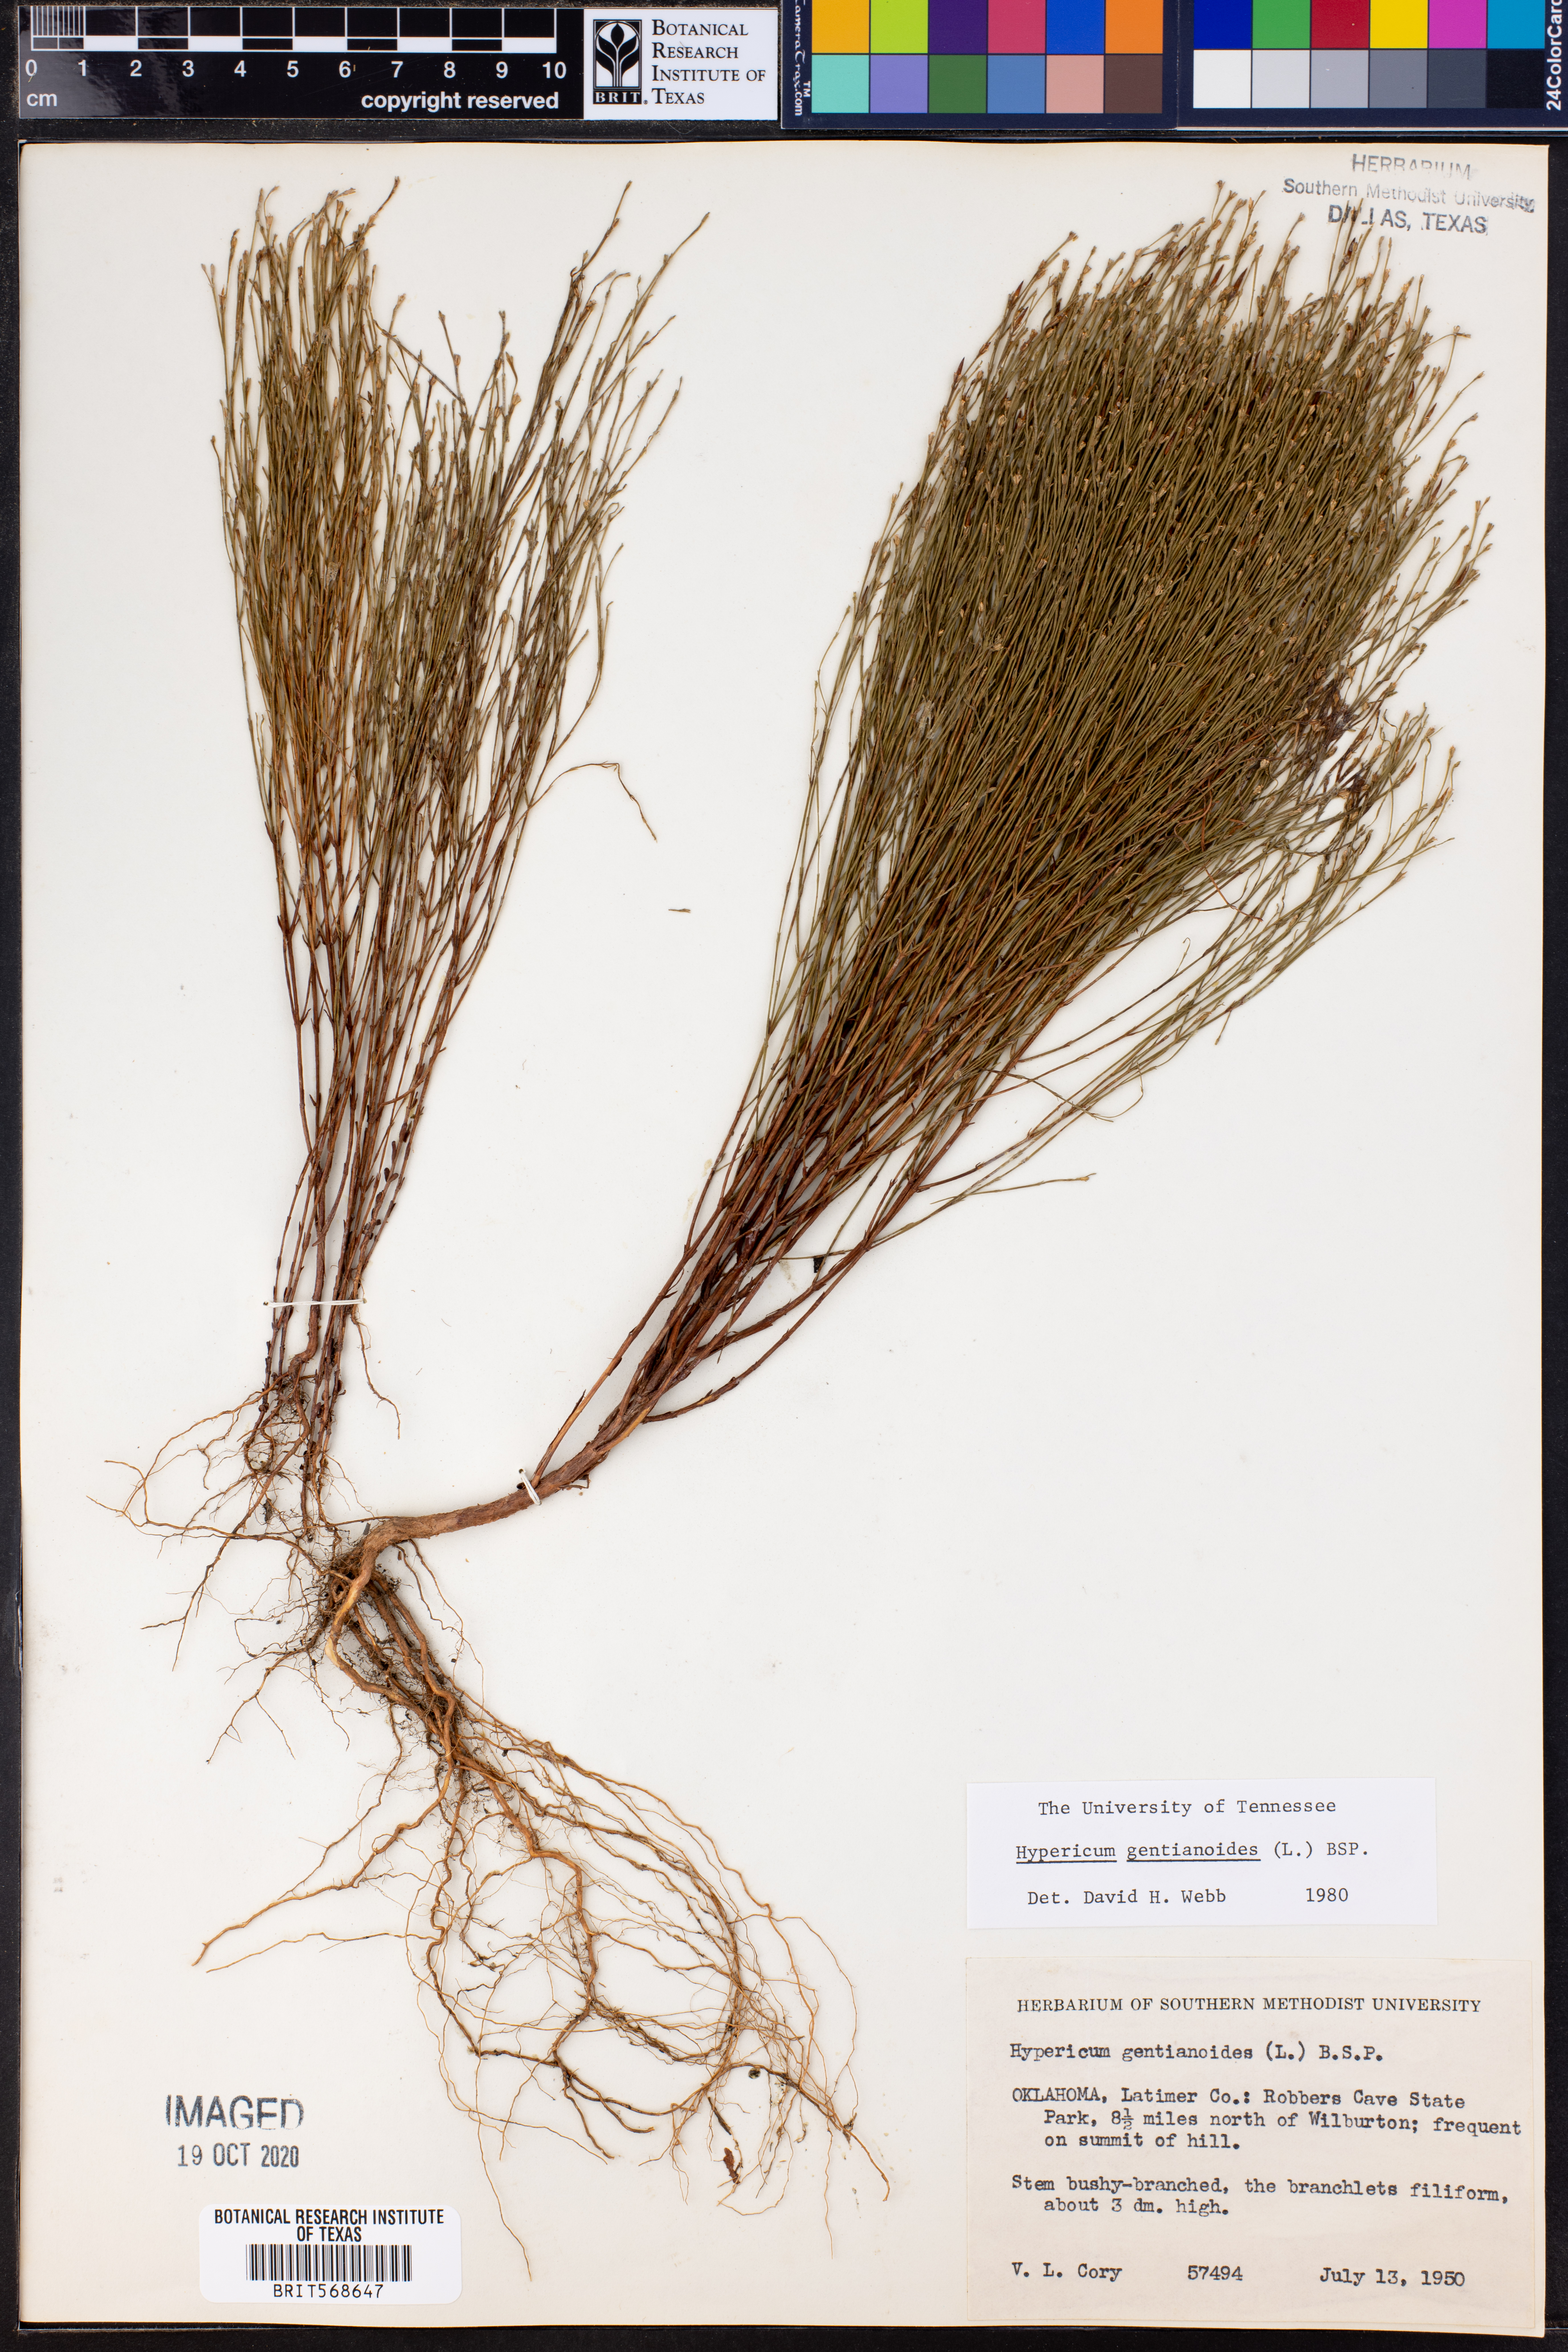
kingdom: Plantae
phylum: Tracheophyta
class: Magnoliopsida
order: Malpighiales
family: Hypericaceae
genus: Hypericum
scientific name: Hypericum gentianoides
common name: Gentian-leaved st. john's-wort
